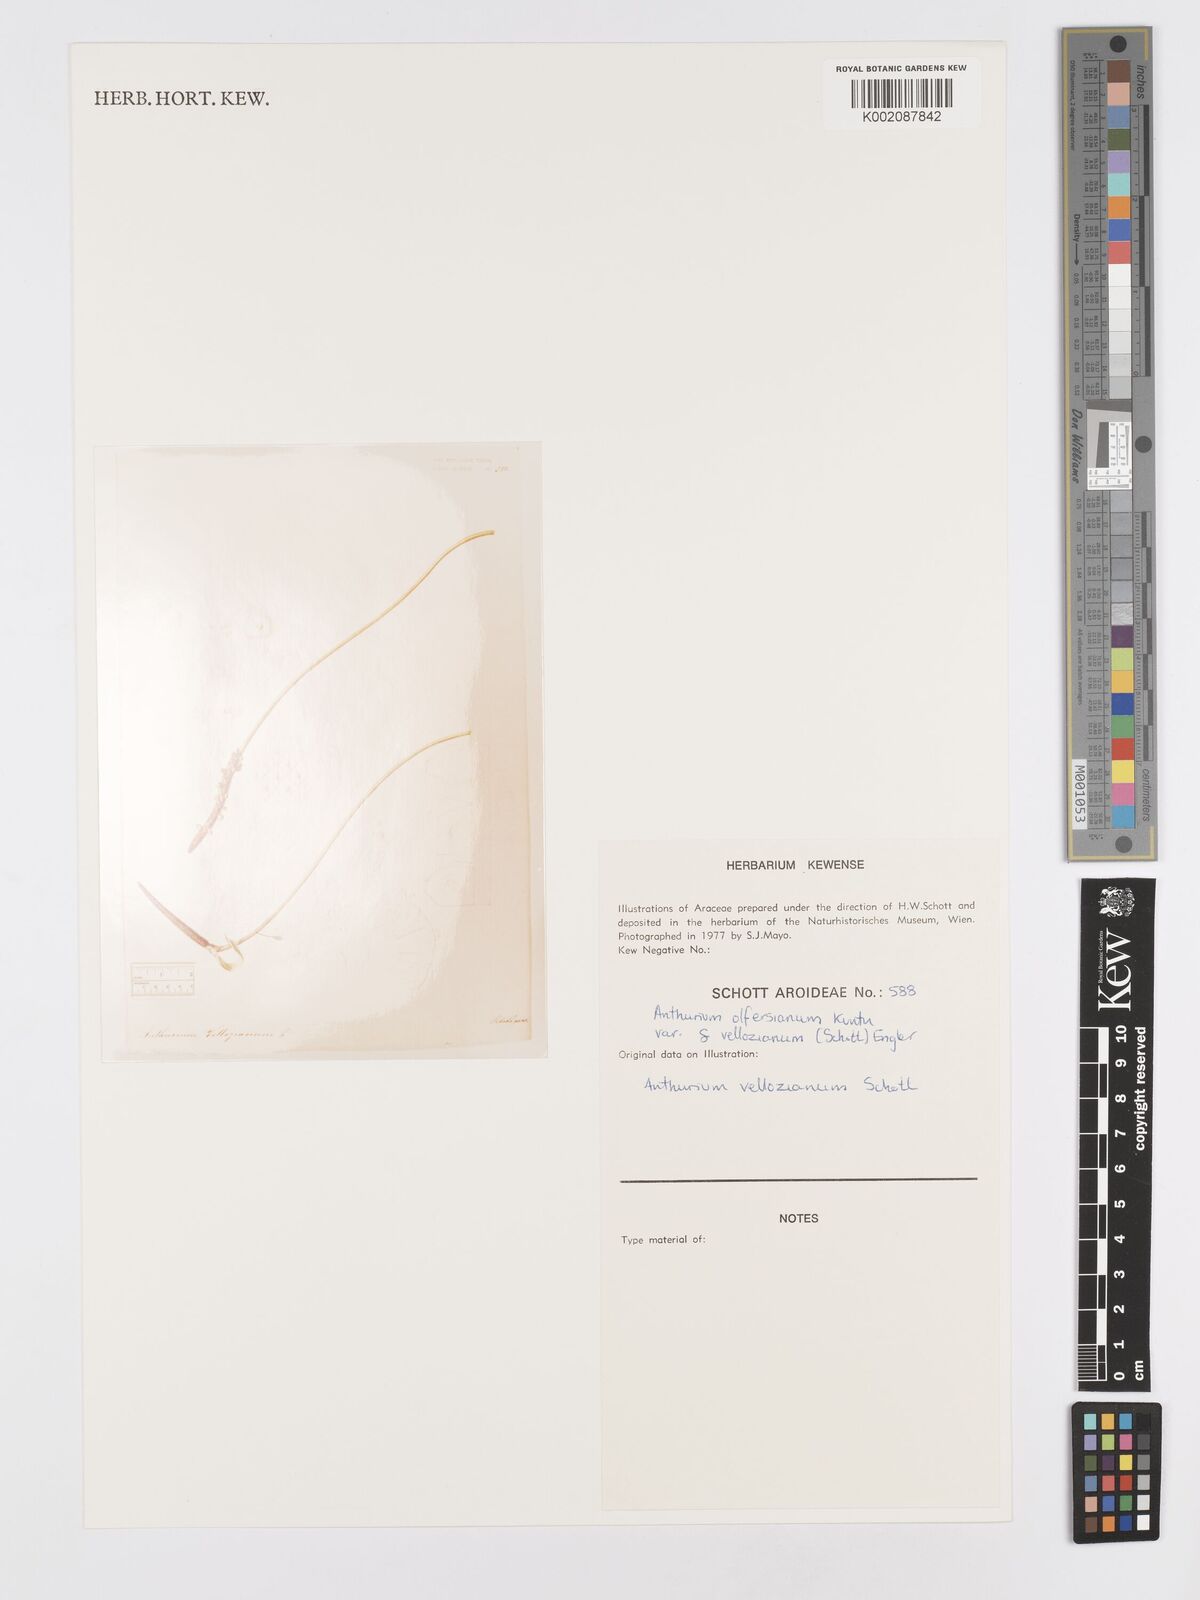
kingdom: Plantae
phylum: Tracheophyta
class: Liliopsida
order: Alismatales
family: Araceae
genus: Anthurium
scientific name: Anthurium parasiticum
